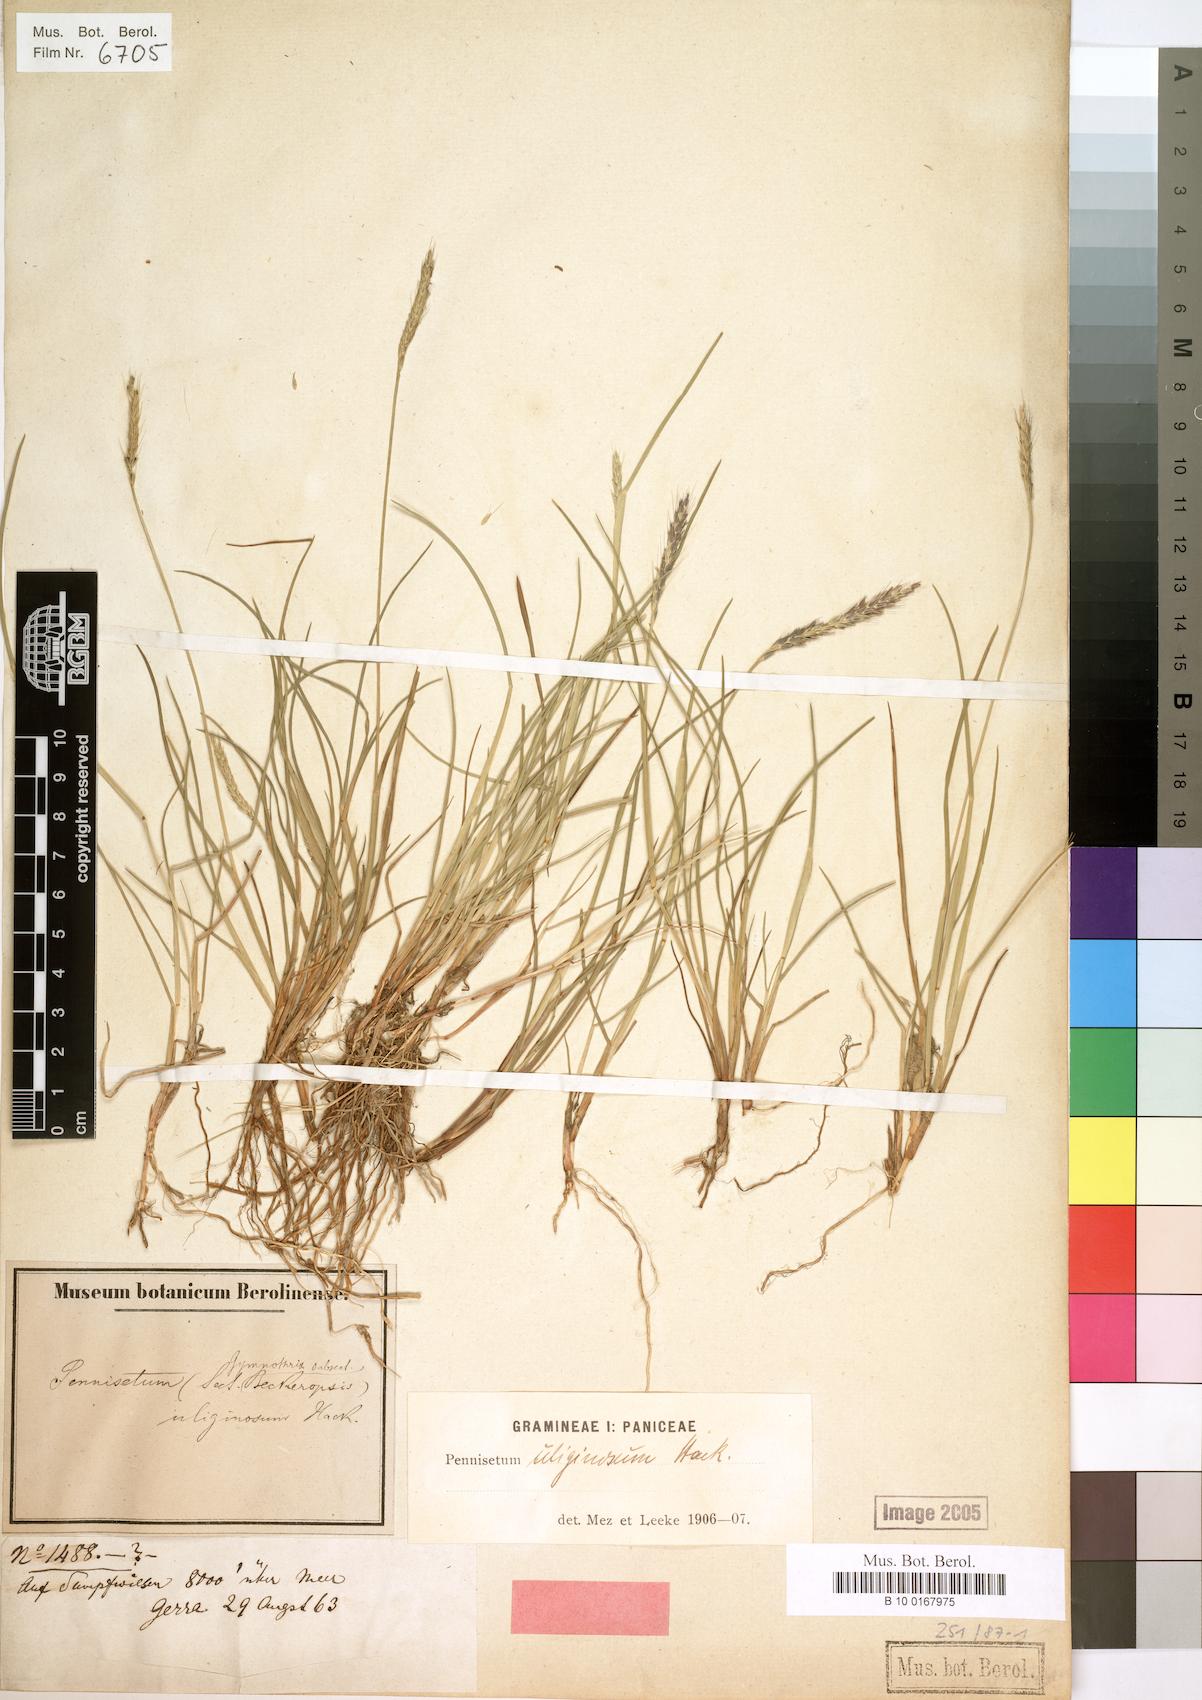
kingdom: Plantae
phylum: Tracheophyta
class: Liliopsida
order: Poales
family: Poaceae
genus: Cenchrus
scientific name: Cenchrus Pennisetum uliginosum
